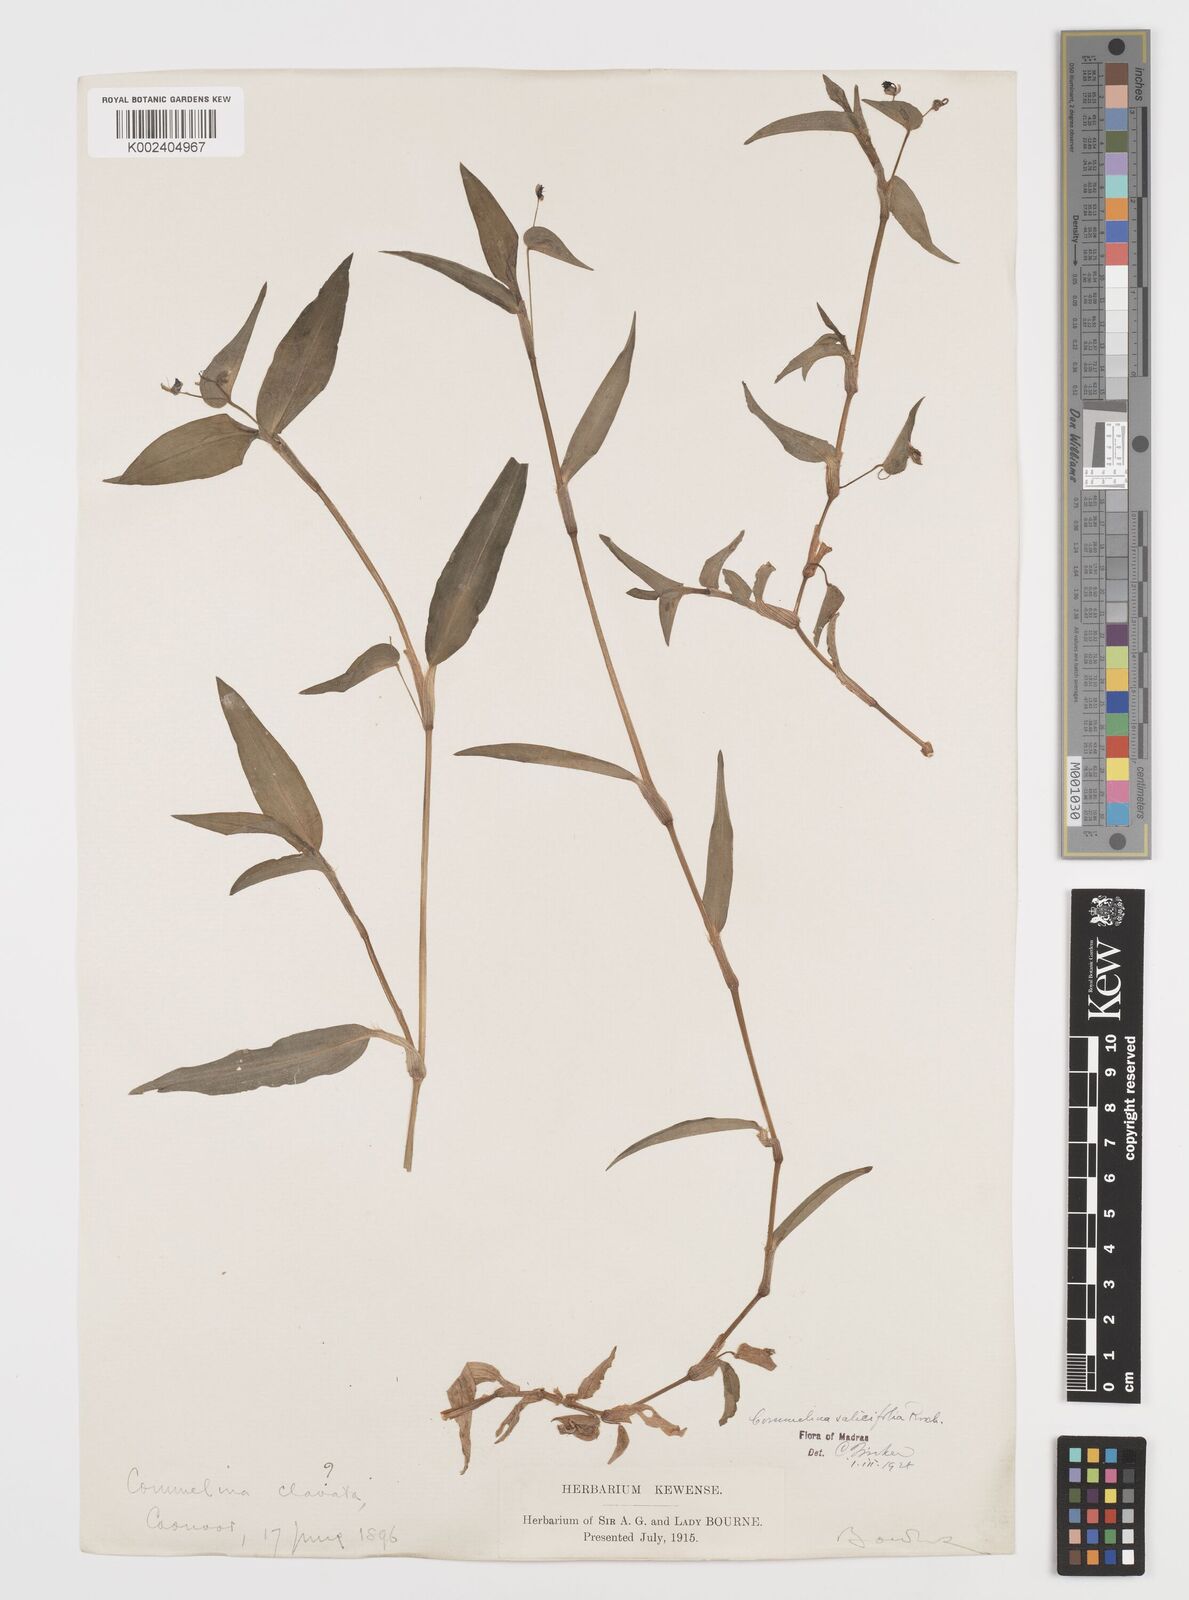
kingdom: Plantae
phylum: Tracheophyta
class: Liliopsida
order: Commelinales
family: Commelinaceae
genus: Commelina
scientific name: Commelina undulata
